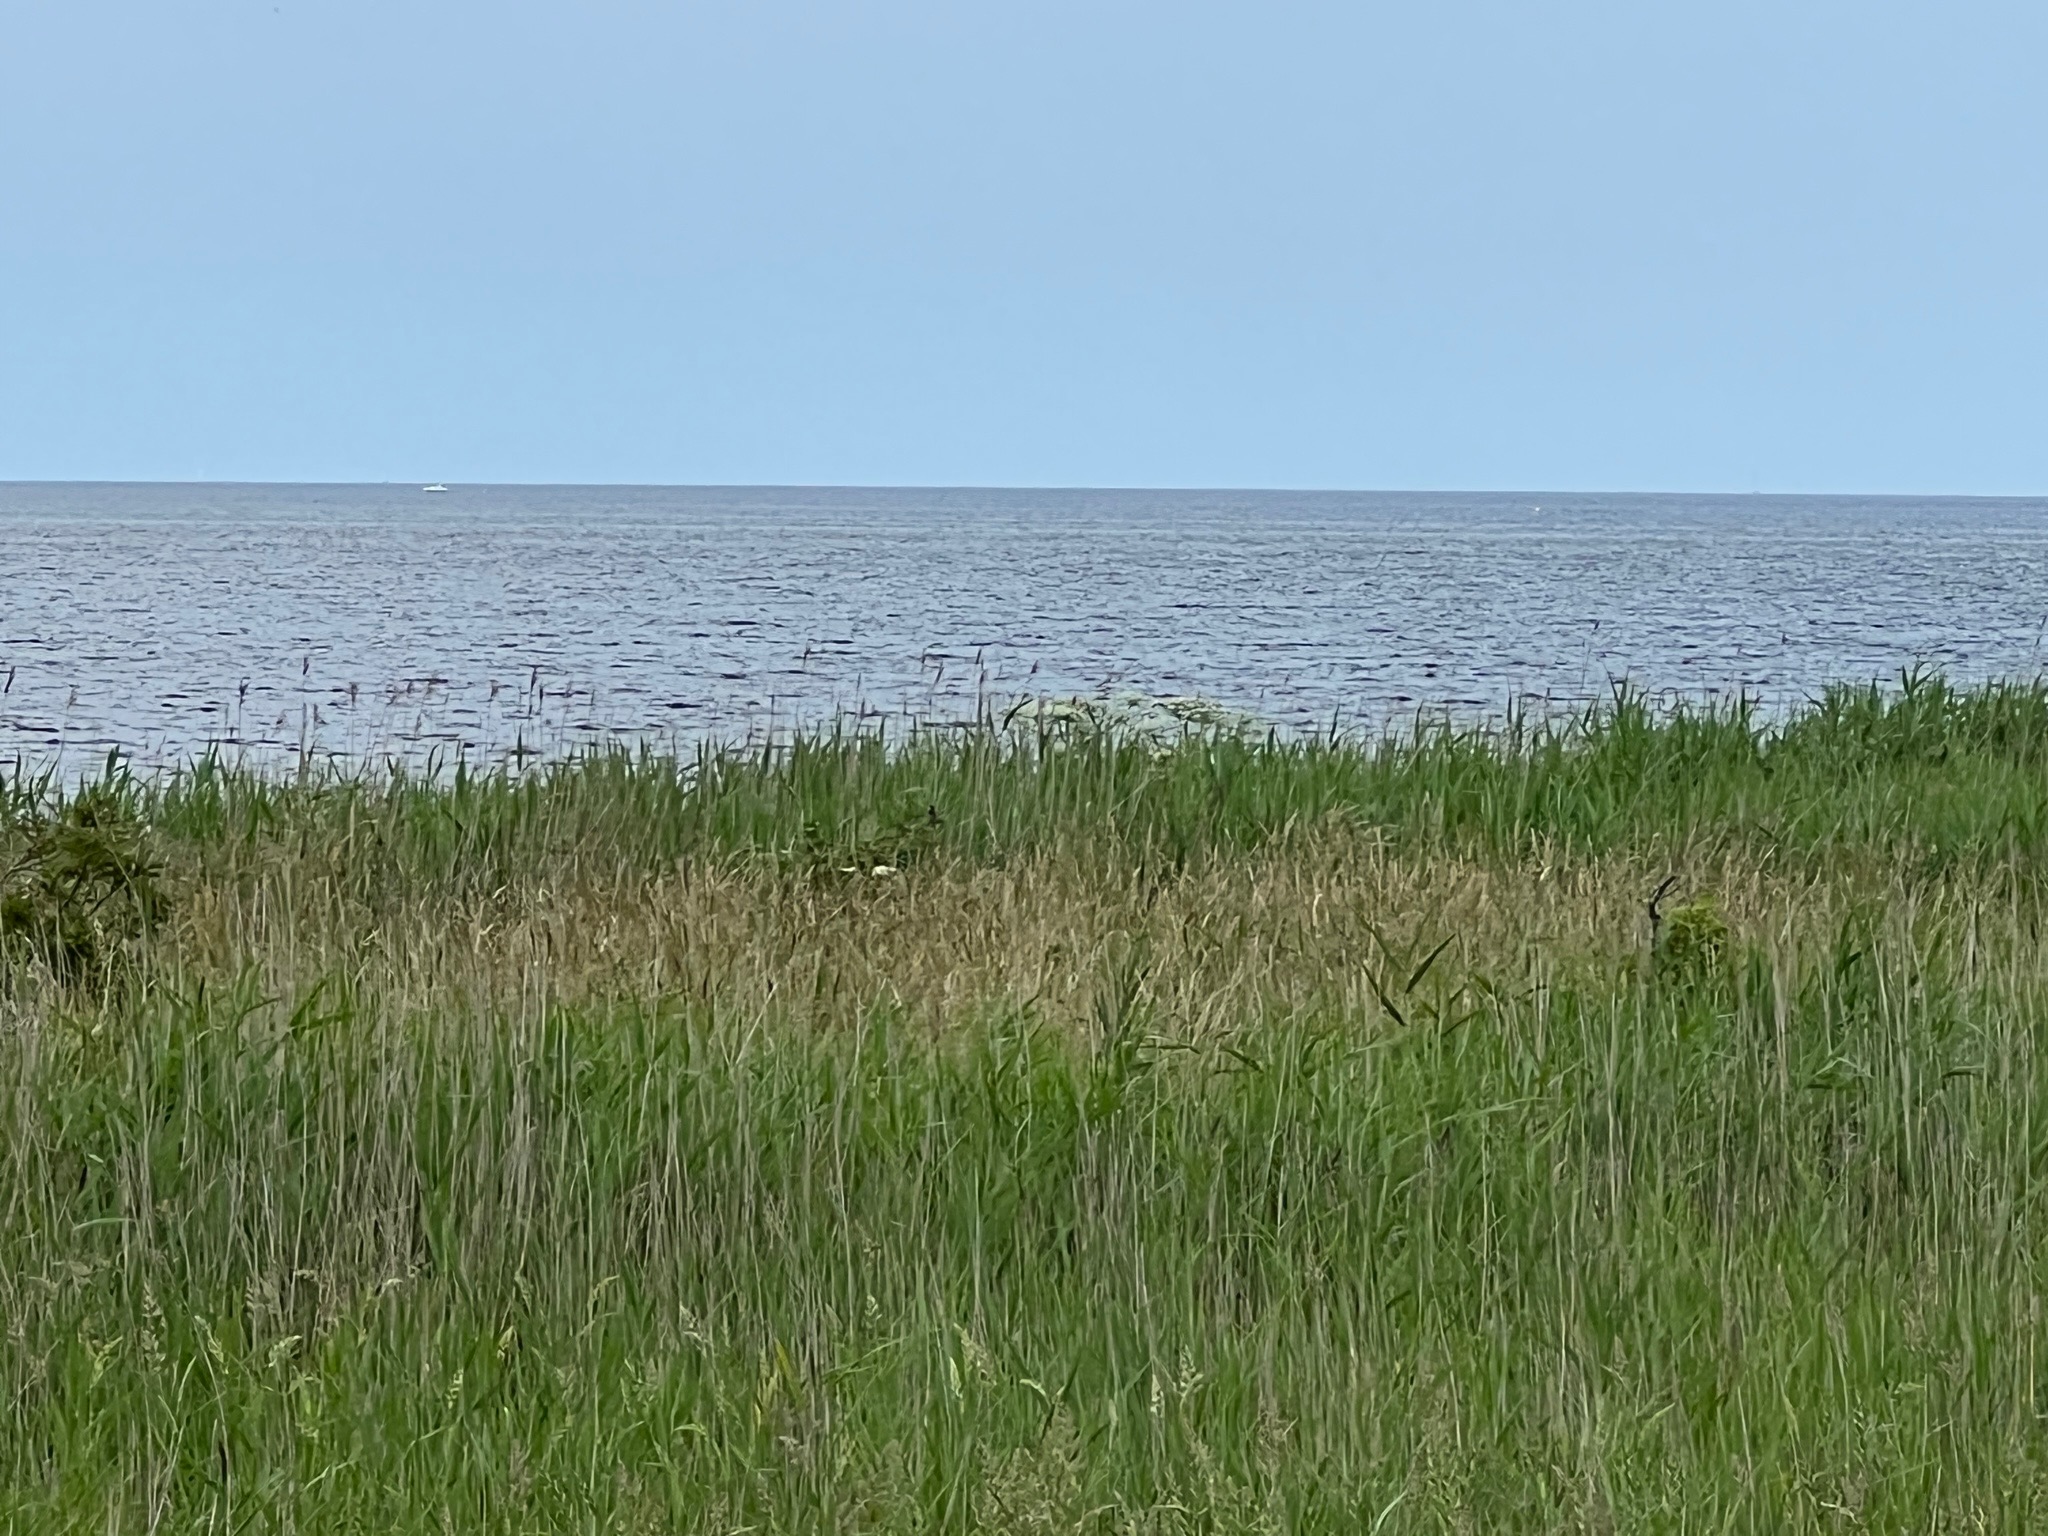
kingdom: Plantae
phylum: Tracheophyta
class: Magnoliopsida
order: Apiales
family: Apiaceae
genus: Heracleum
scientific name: Heracleum mantegazzianum
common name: Kæmpe-bjørneklo
